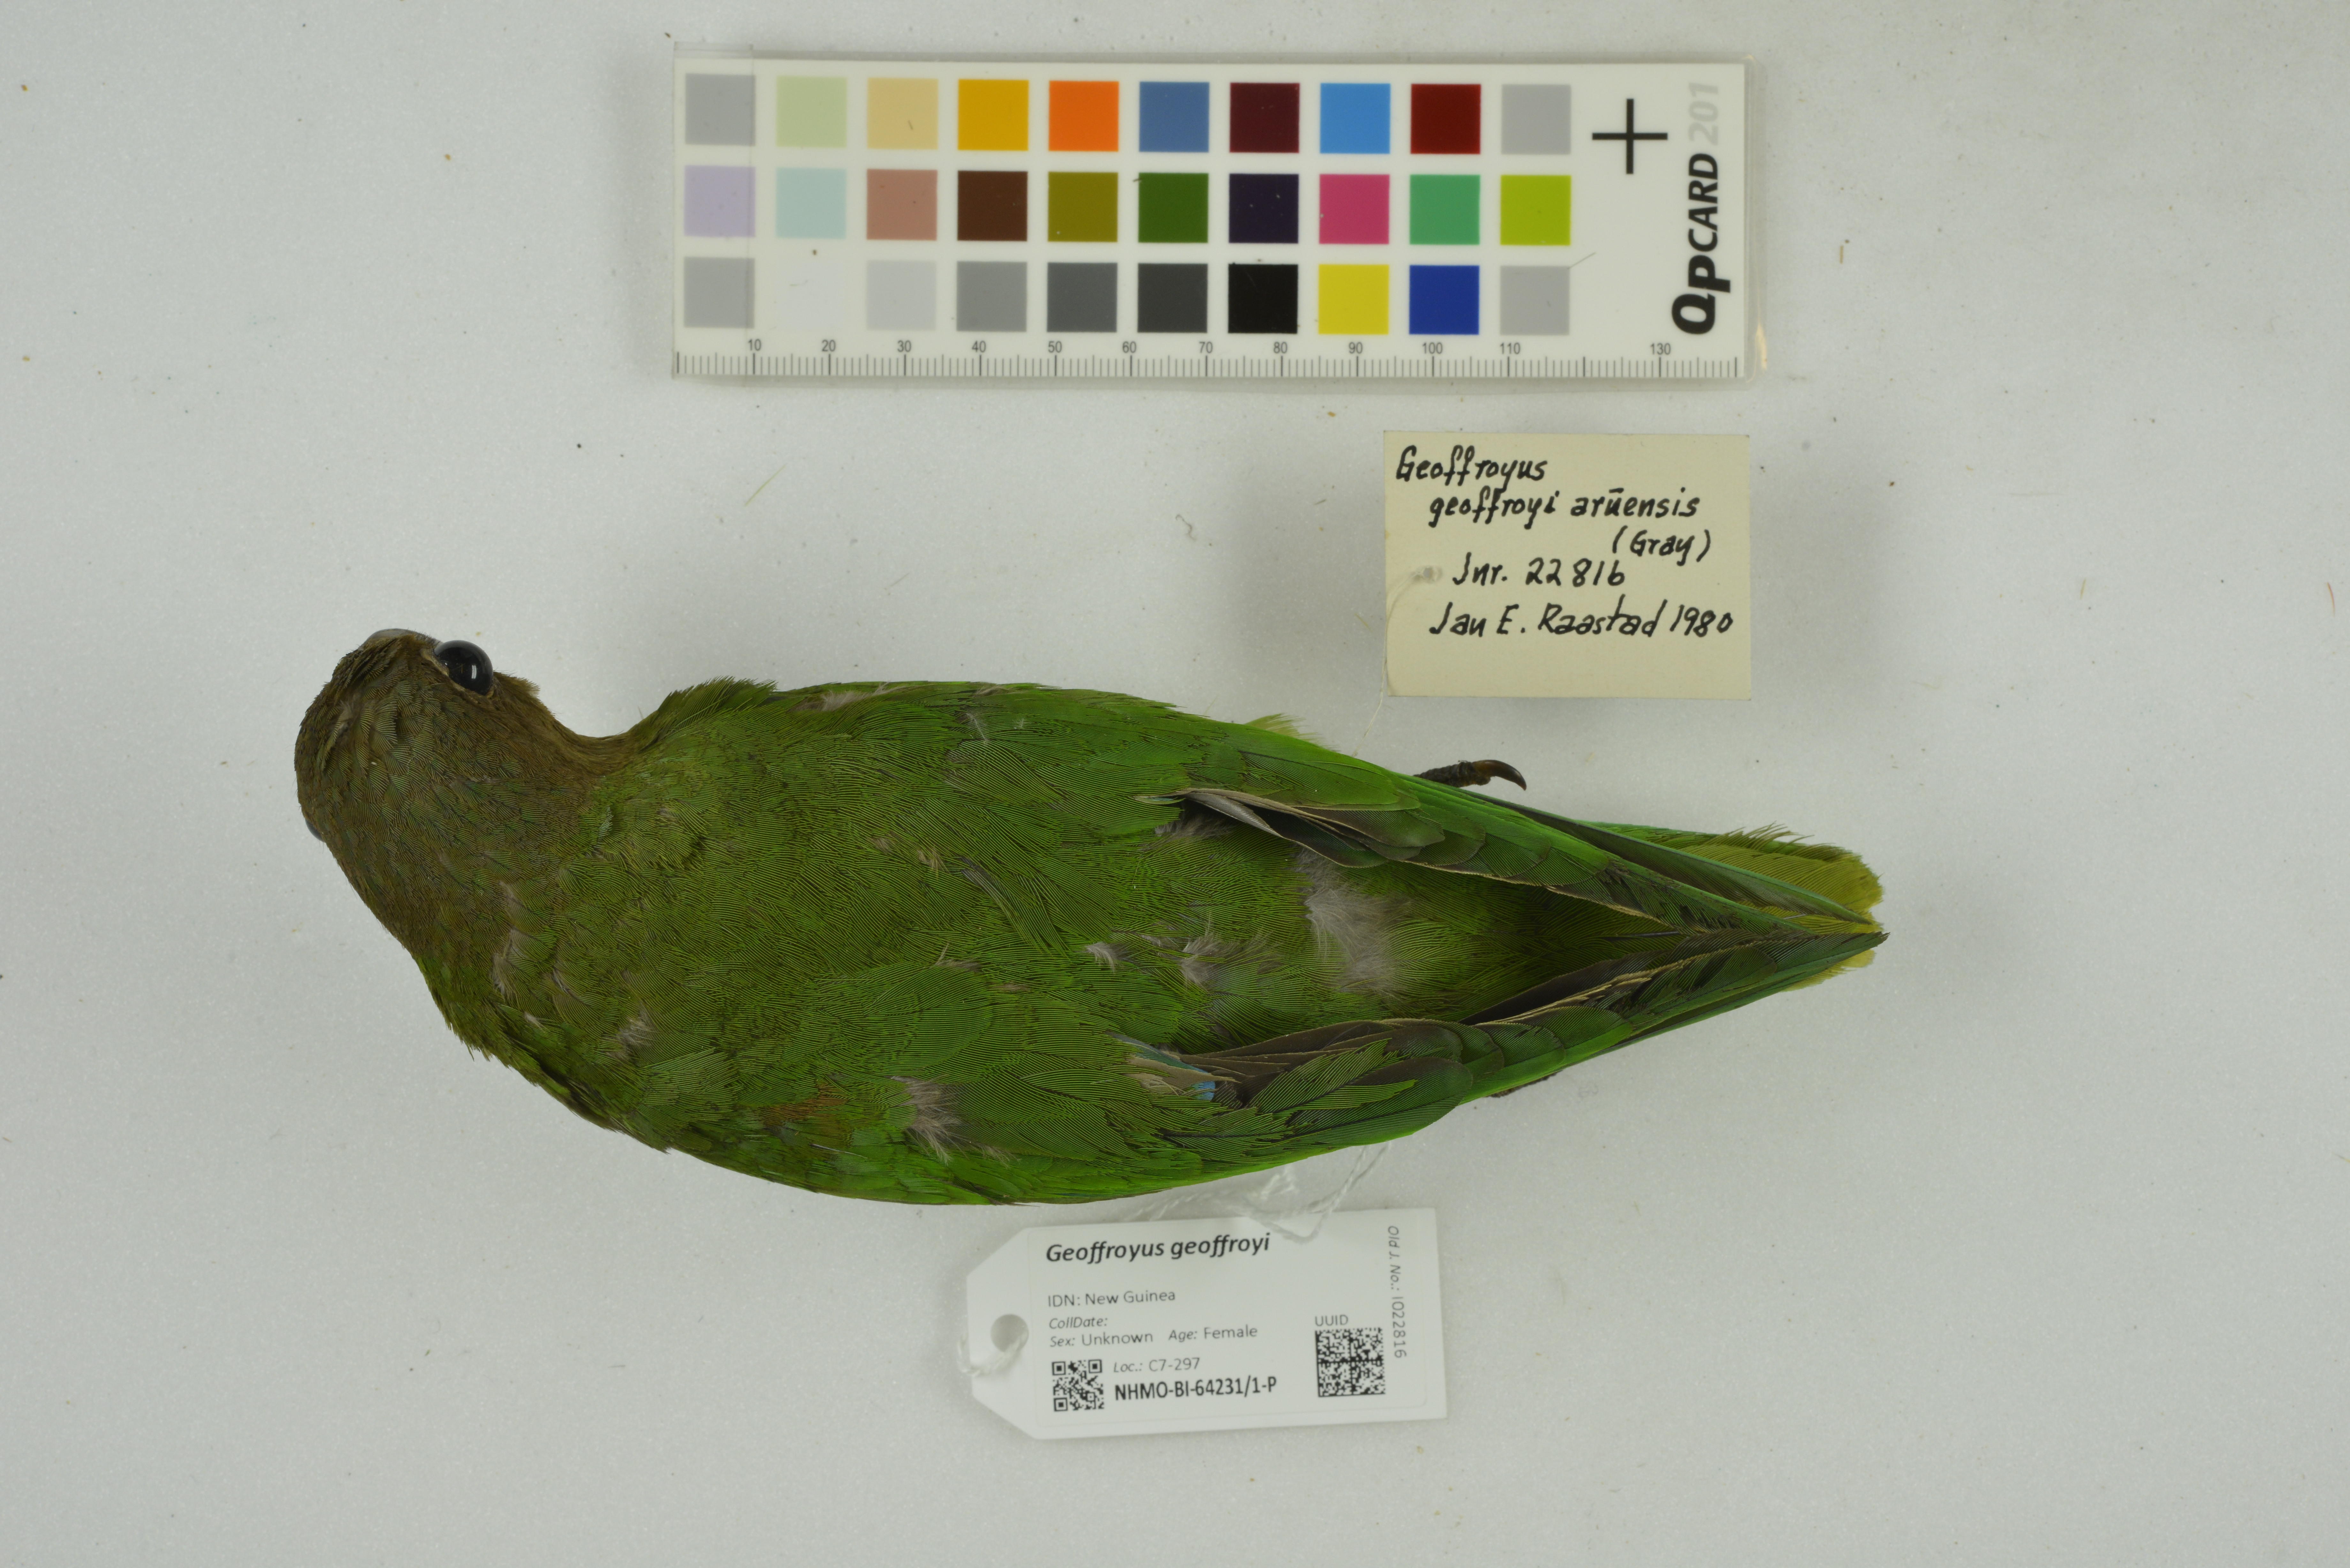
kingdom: Animalia
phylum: Chordata
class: Aves
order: Psittaciformes
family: Psittacidae
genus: Geoffroyus
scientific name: Geoffroyus geoffroyi
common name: Red-cheeked parrot
